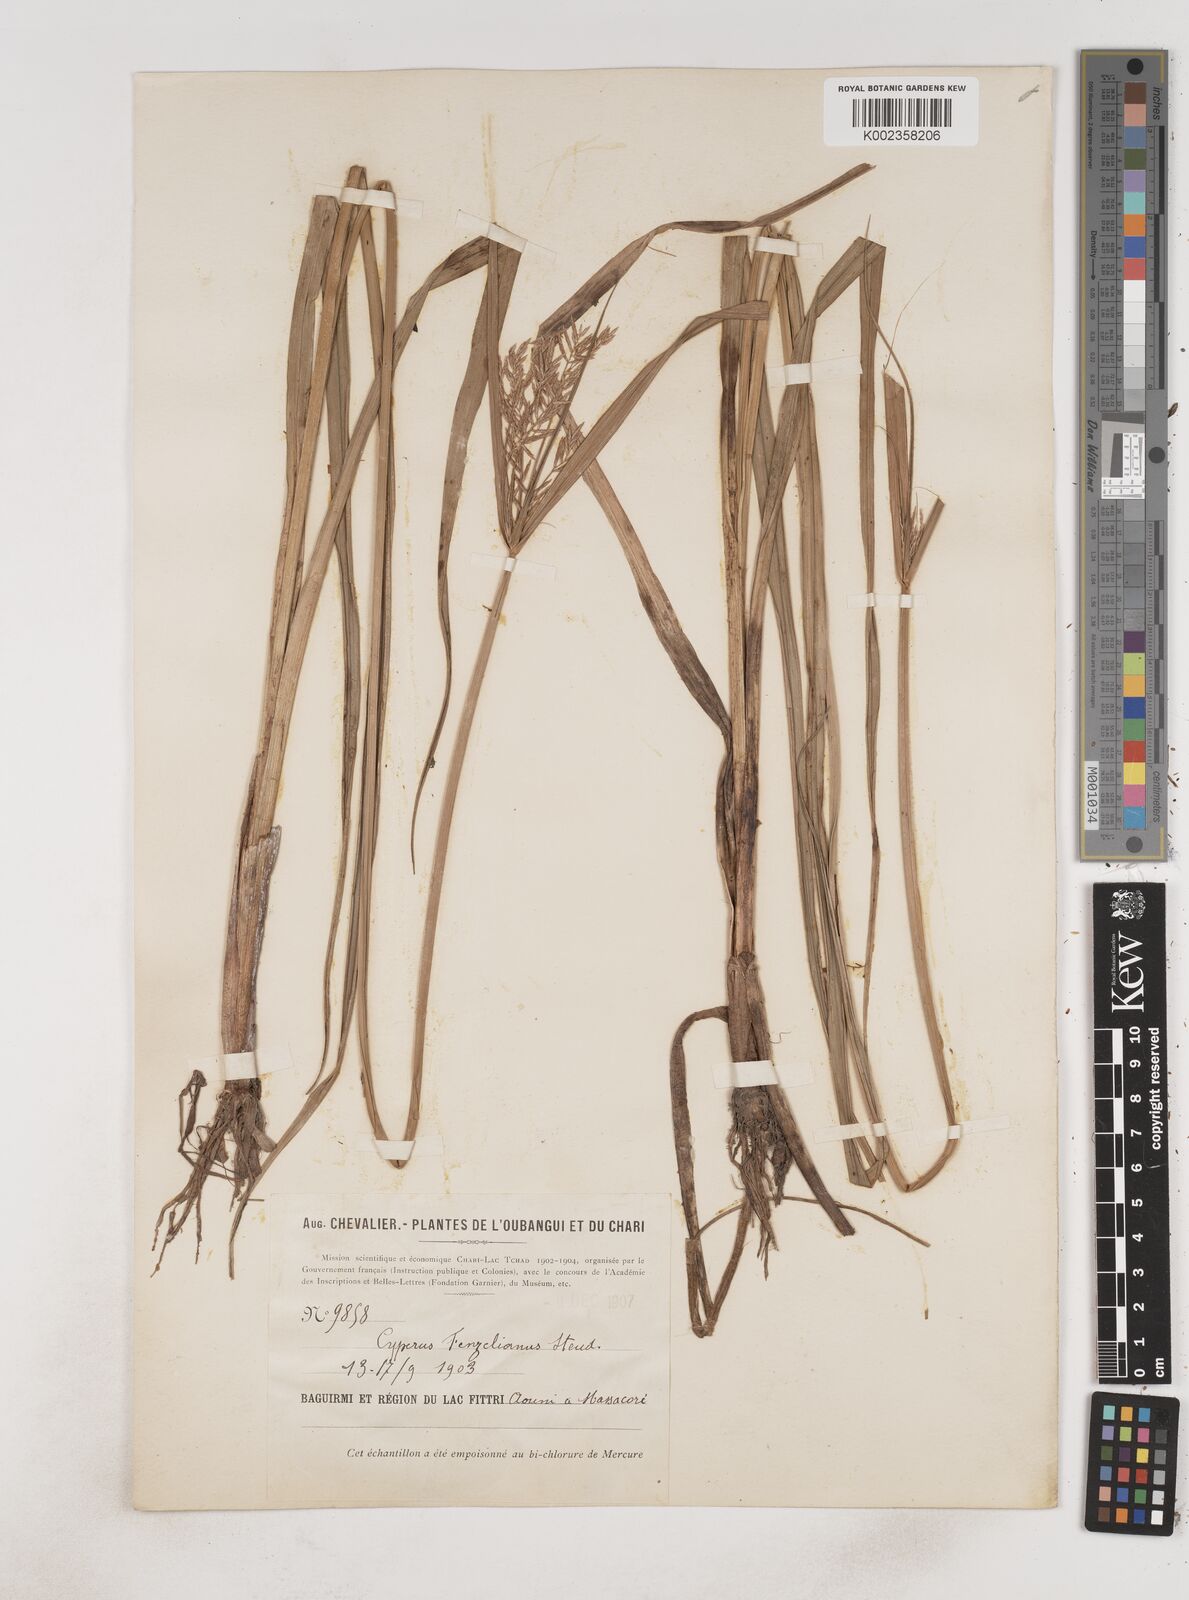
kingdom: Plantae
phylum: Tracheophyta
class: Liliopsida
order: Poales
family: Cyperaceae
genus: Cyperus
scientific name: Cyperus longus
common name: Galingale
